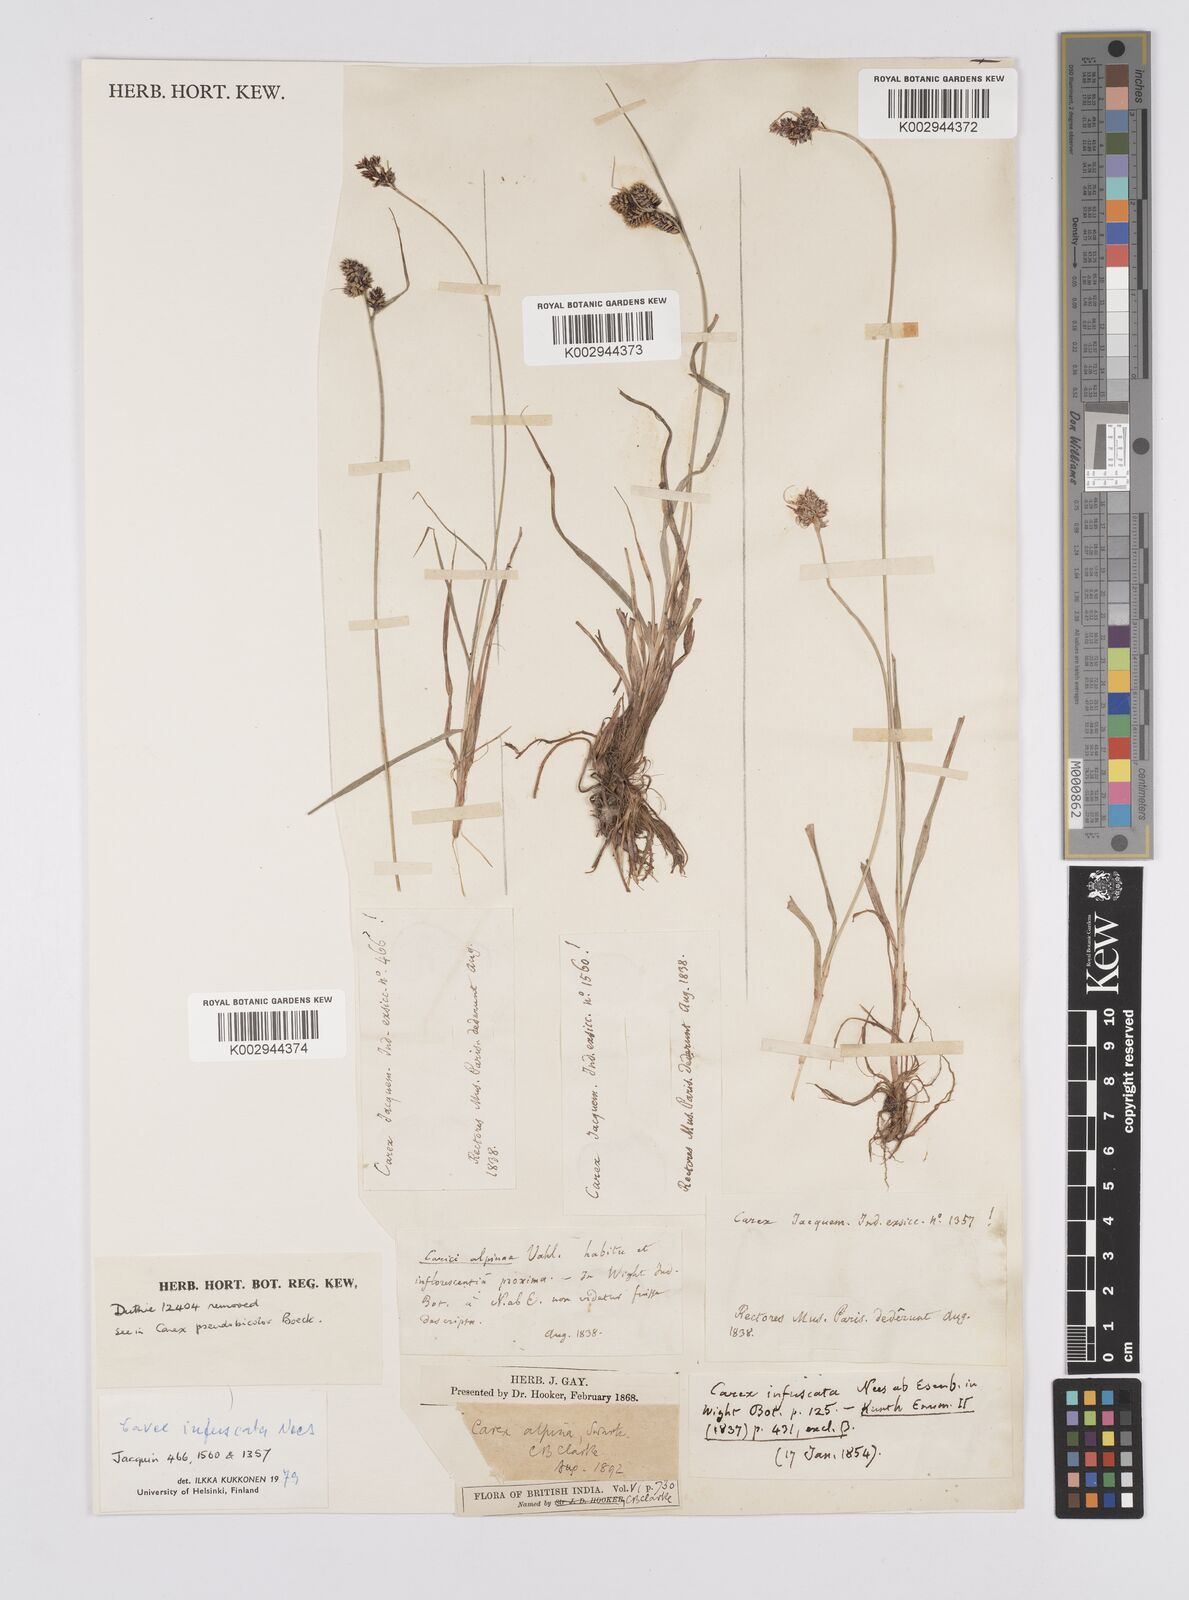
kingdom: Plantae
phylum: Tracheophyta
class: Liliopsida
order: Poales
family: Cyperaceae
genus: Carex
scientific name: Carex norvegica
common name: Close-headed alpine-sedge
